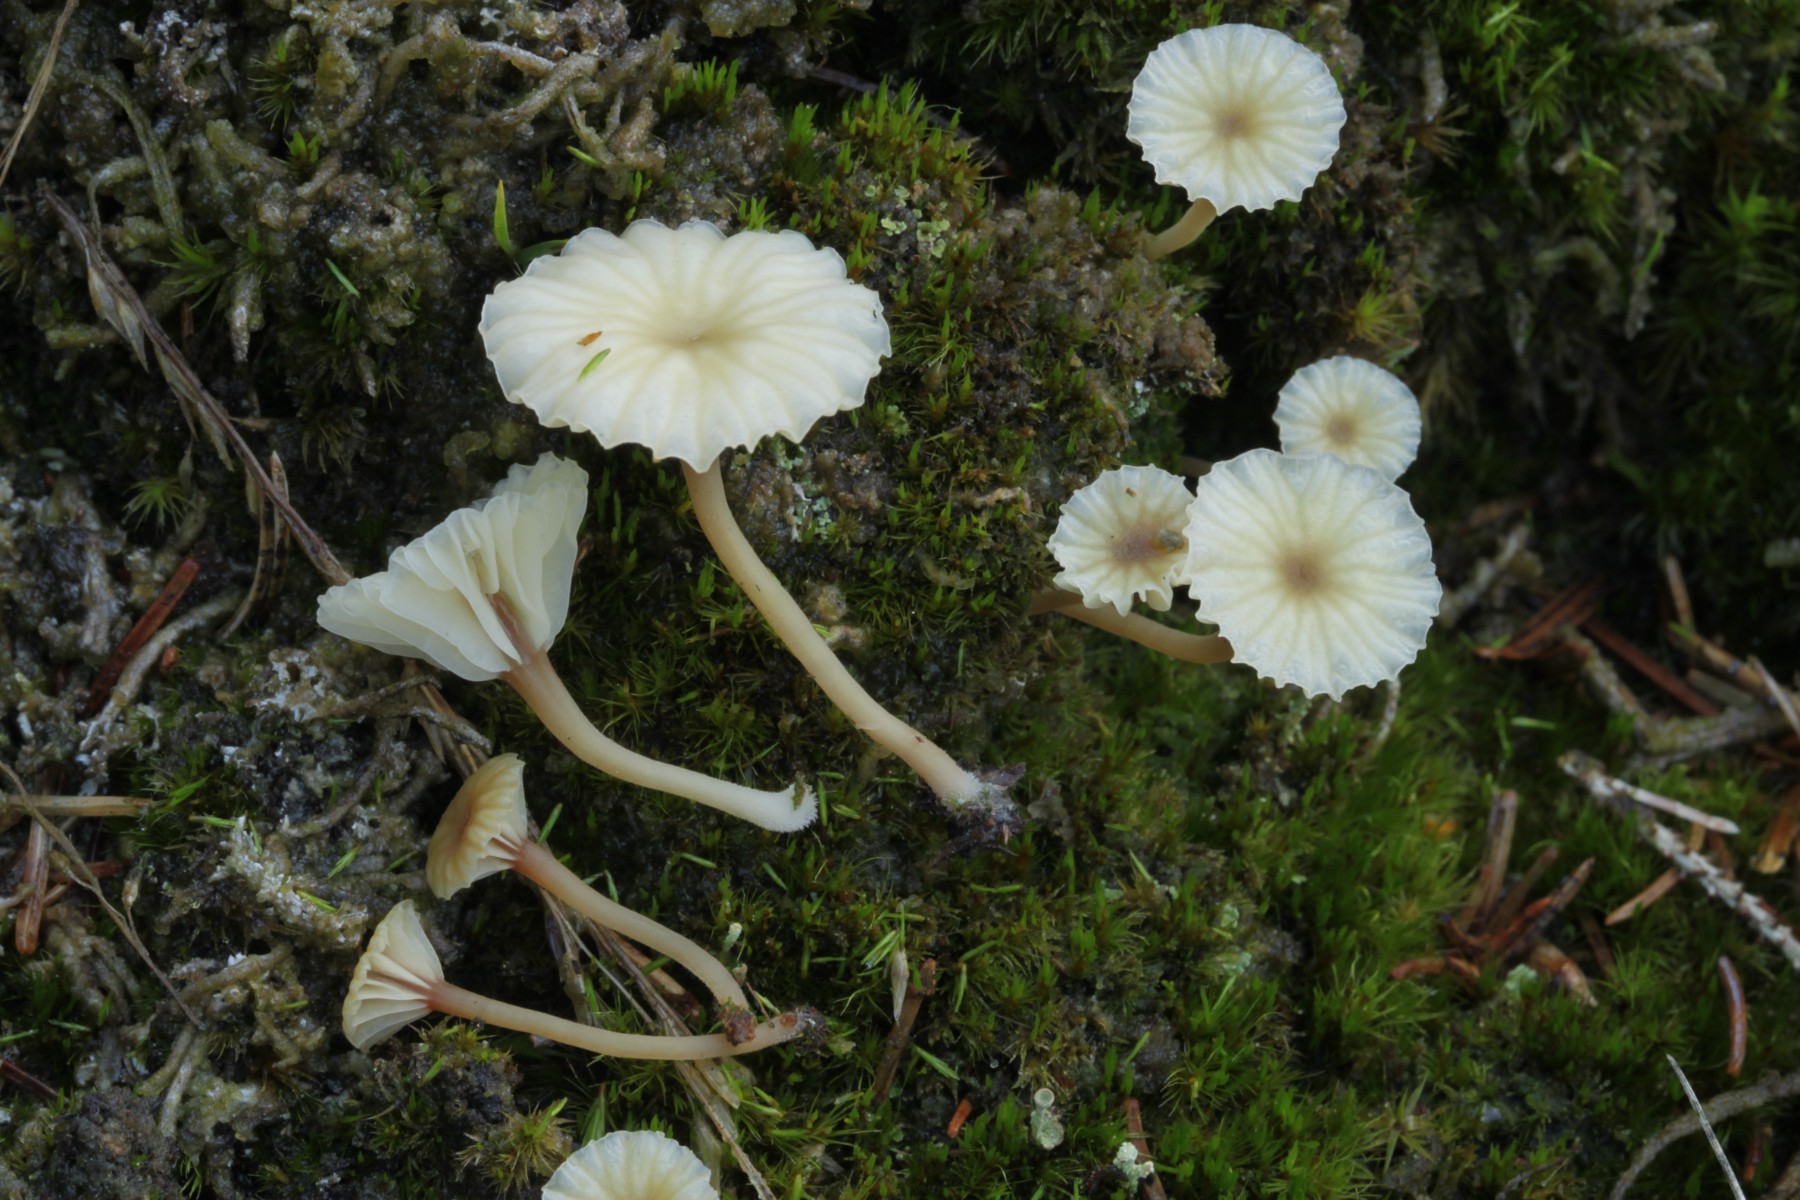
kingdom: Fungi
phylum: Basidiomycota
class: Agaricomycetes
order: Agaricales
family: Hygrophoraceae
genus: Lichenomphalia
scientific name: Lichenomphalia umbellifera
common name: tørve-lavhat
